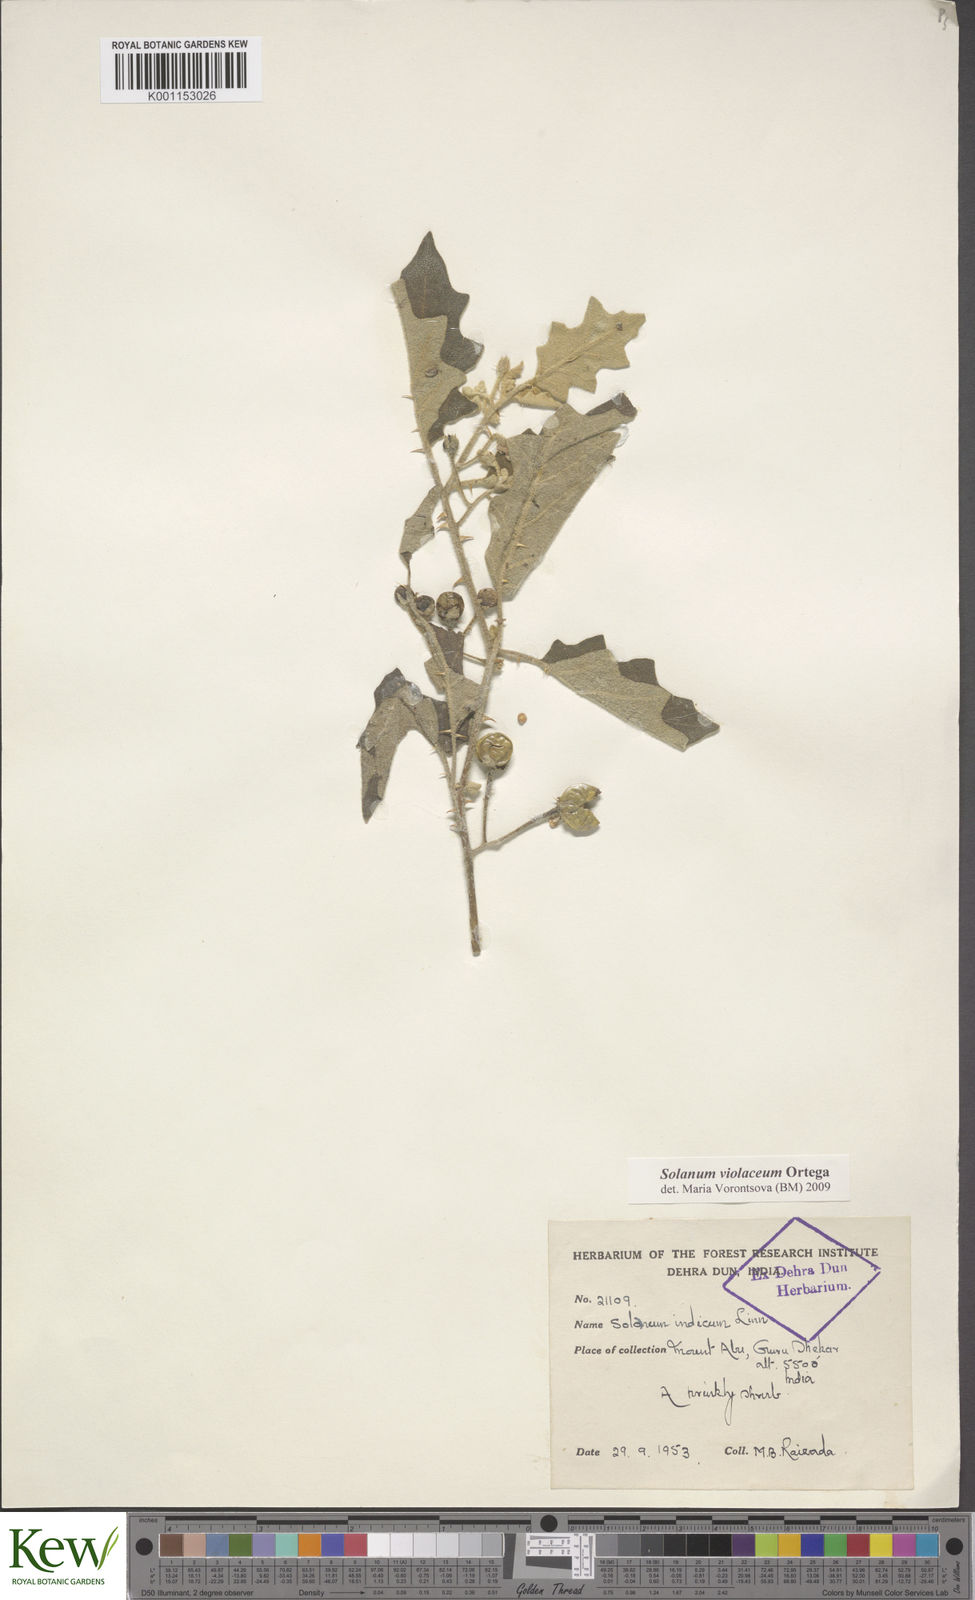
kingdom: Plantae
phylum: Tracheophyta
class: Magnoliopsida
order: Solanales
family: Solanaceae
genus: Solanum
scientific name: Solanum violaceum
